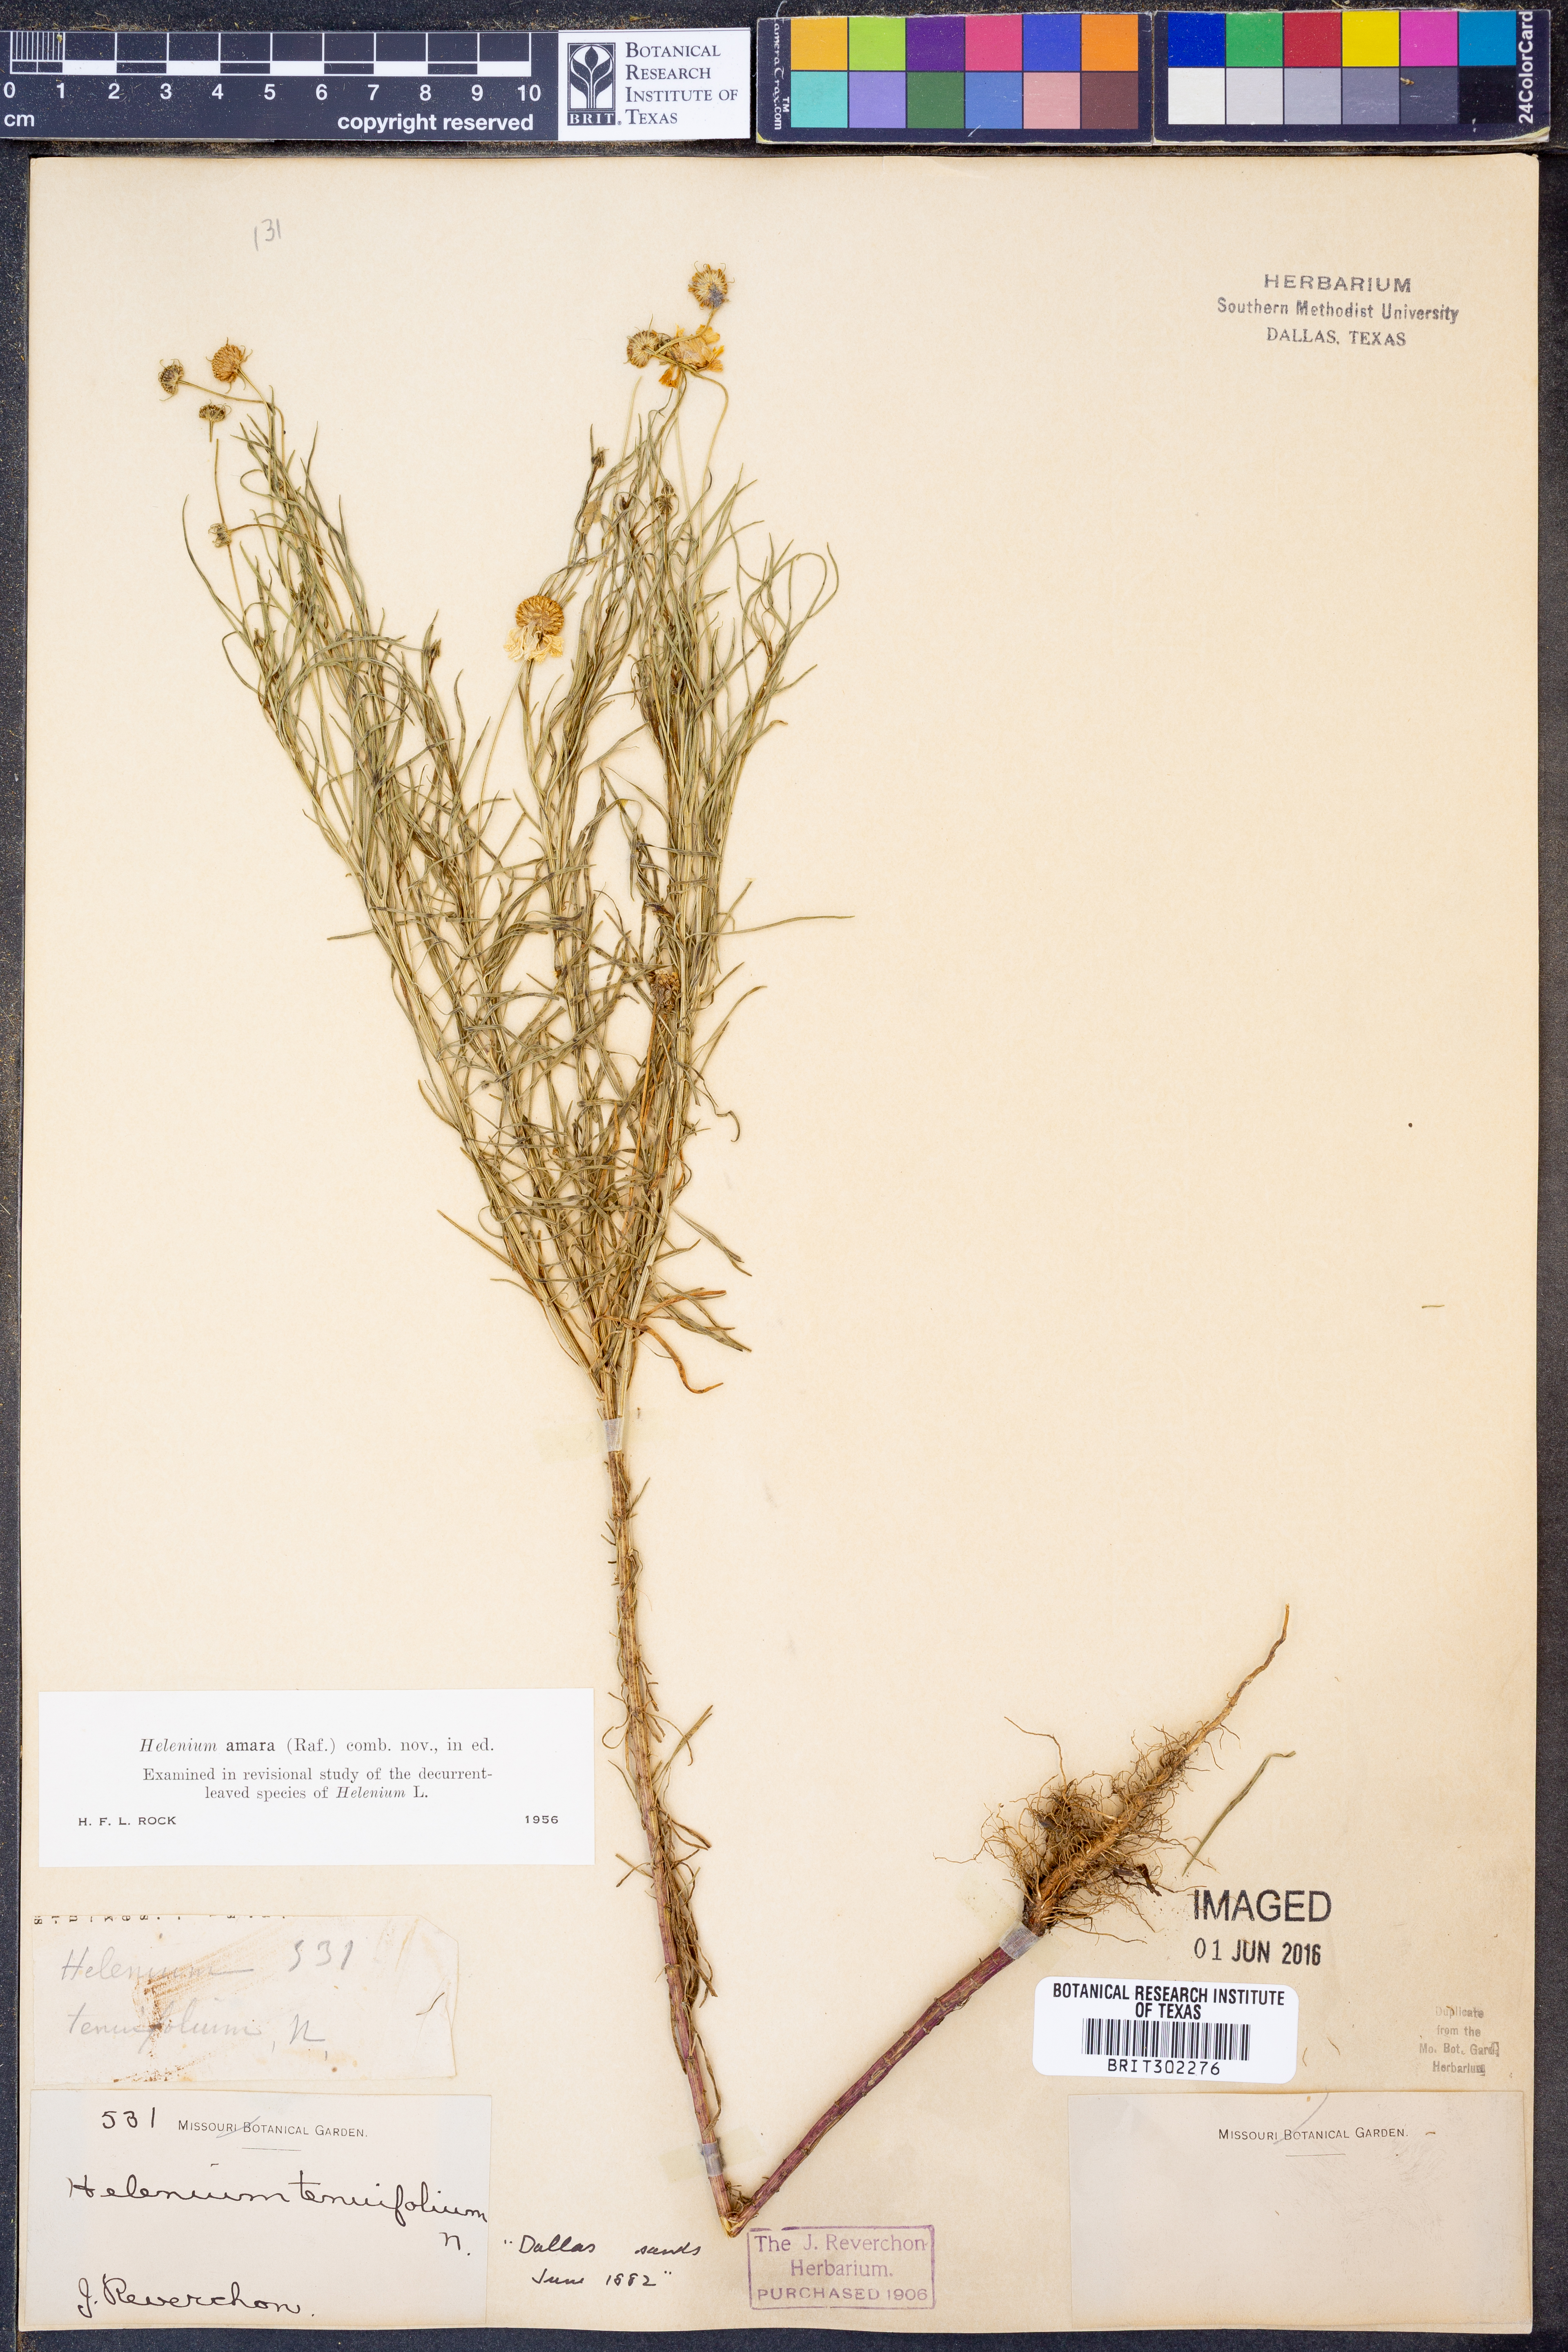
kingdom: Plantae
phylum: Tracheophyta
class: Magnoliopsida
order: Asterales
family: Asteraceae
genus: Helenium
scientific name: Helenium amarum
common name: Bitter sneezeweed
